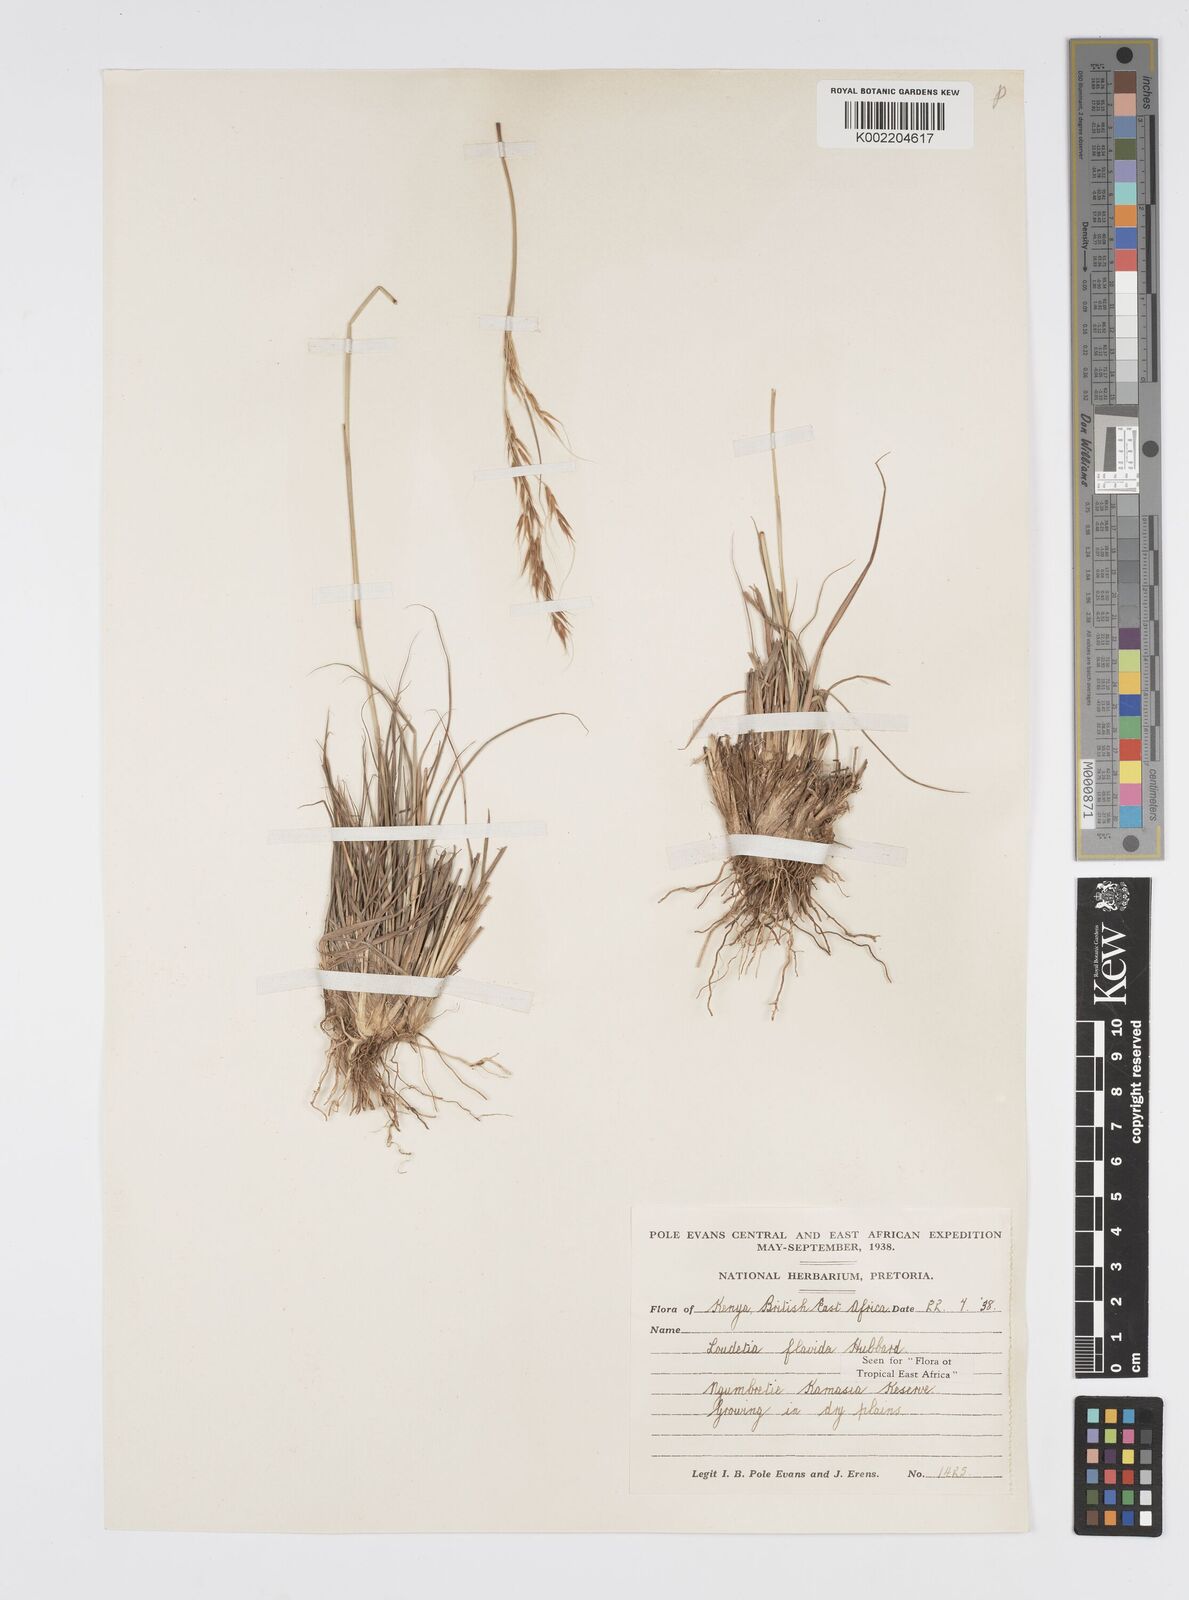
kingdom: Plantae
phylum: Tracheophyta
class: Liliopsida
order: Poales
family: Poaceae
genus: Loudetia
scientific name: Loudetia flavida
